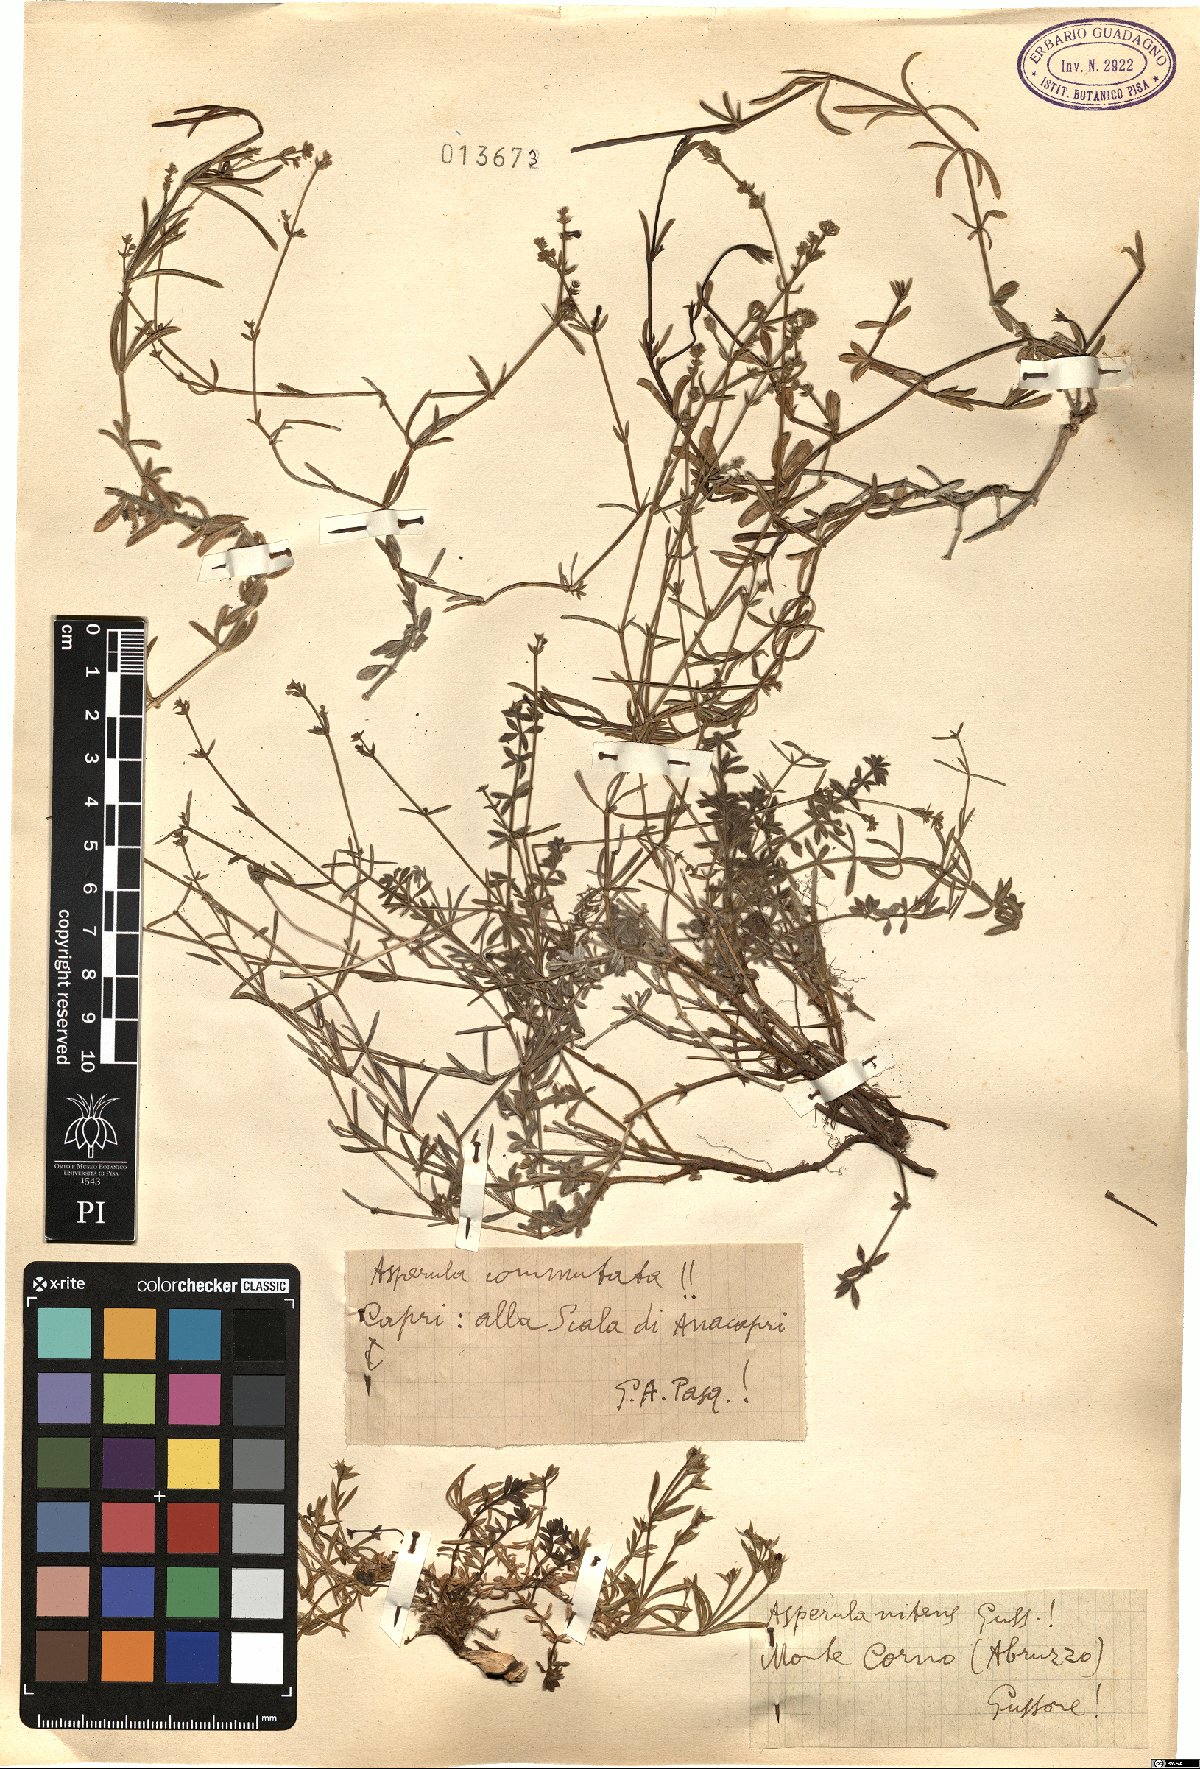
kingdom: Plantae
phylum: Tracheophyta
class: Magnoliopsida
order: Gentianales
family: Rubiaceae
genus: Cynanchica
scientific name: Cynanchica aristata
